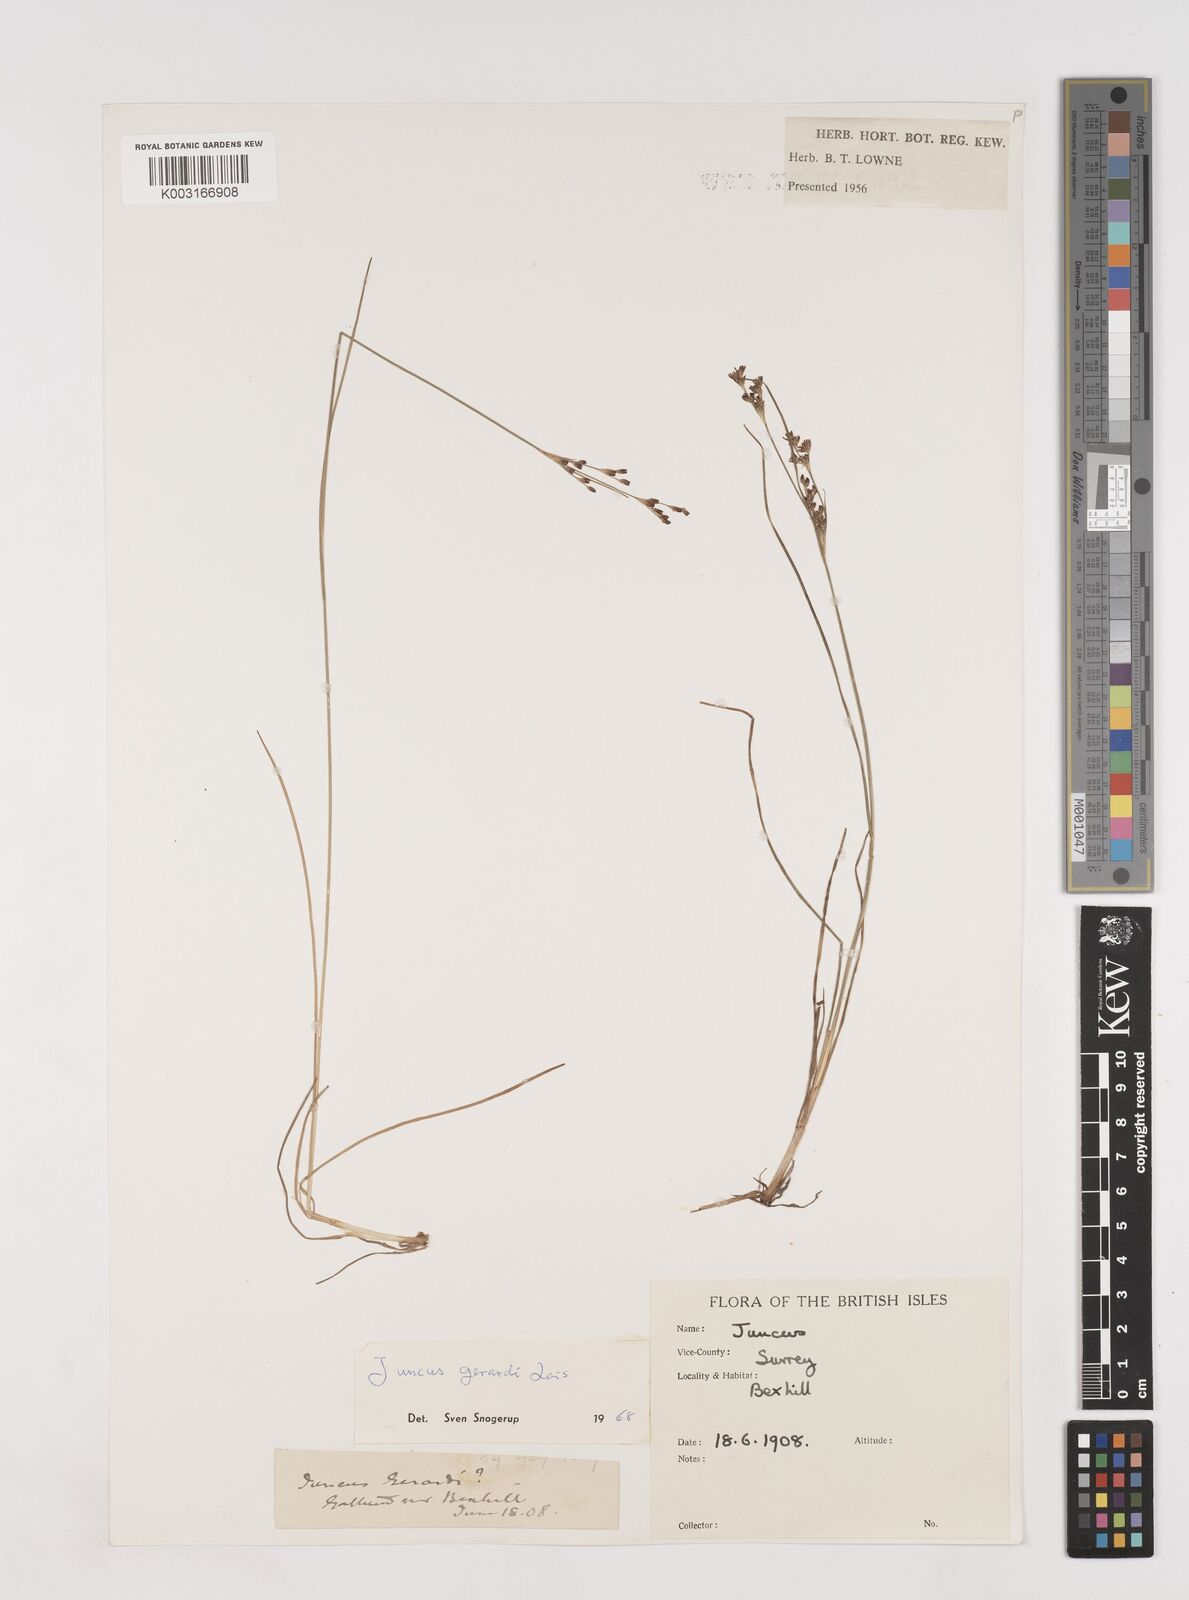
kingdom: Plantae
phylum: Tracheophyta
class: Liliopsida
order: Poales
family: Juncaceae
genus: Juncus
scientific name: Juncus gerardi
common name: Saltmarsh rush
